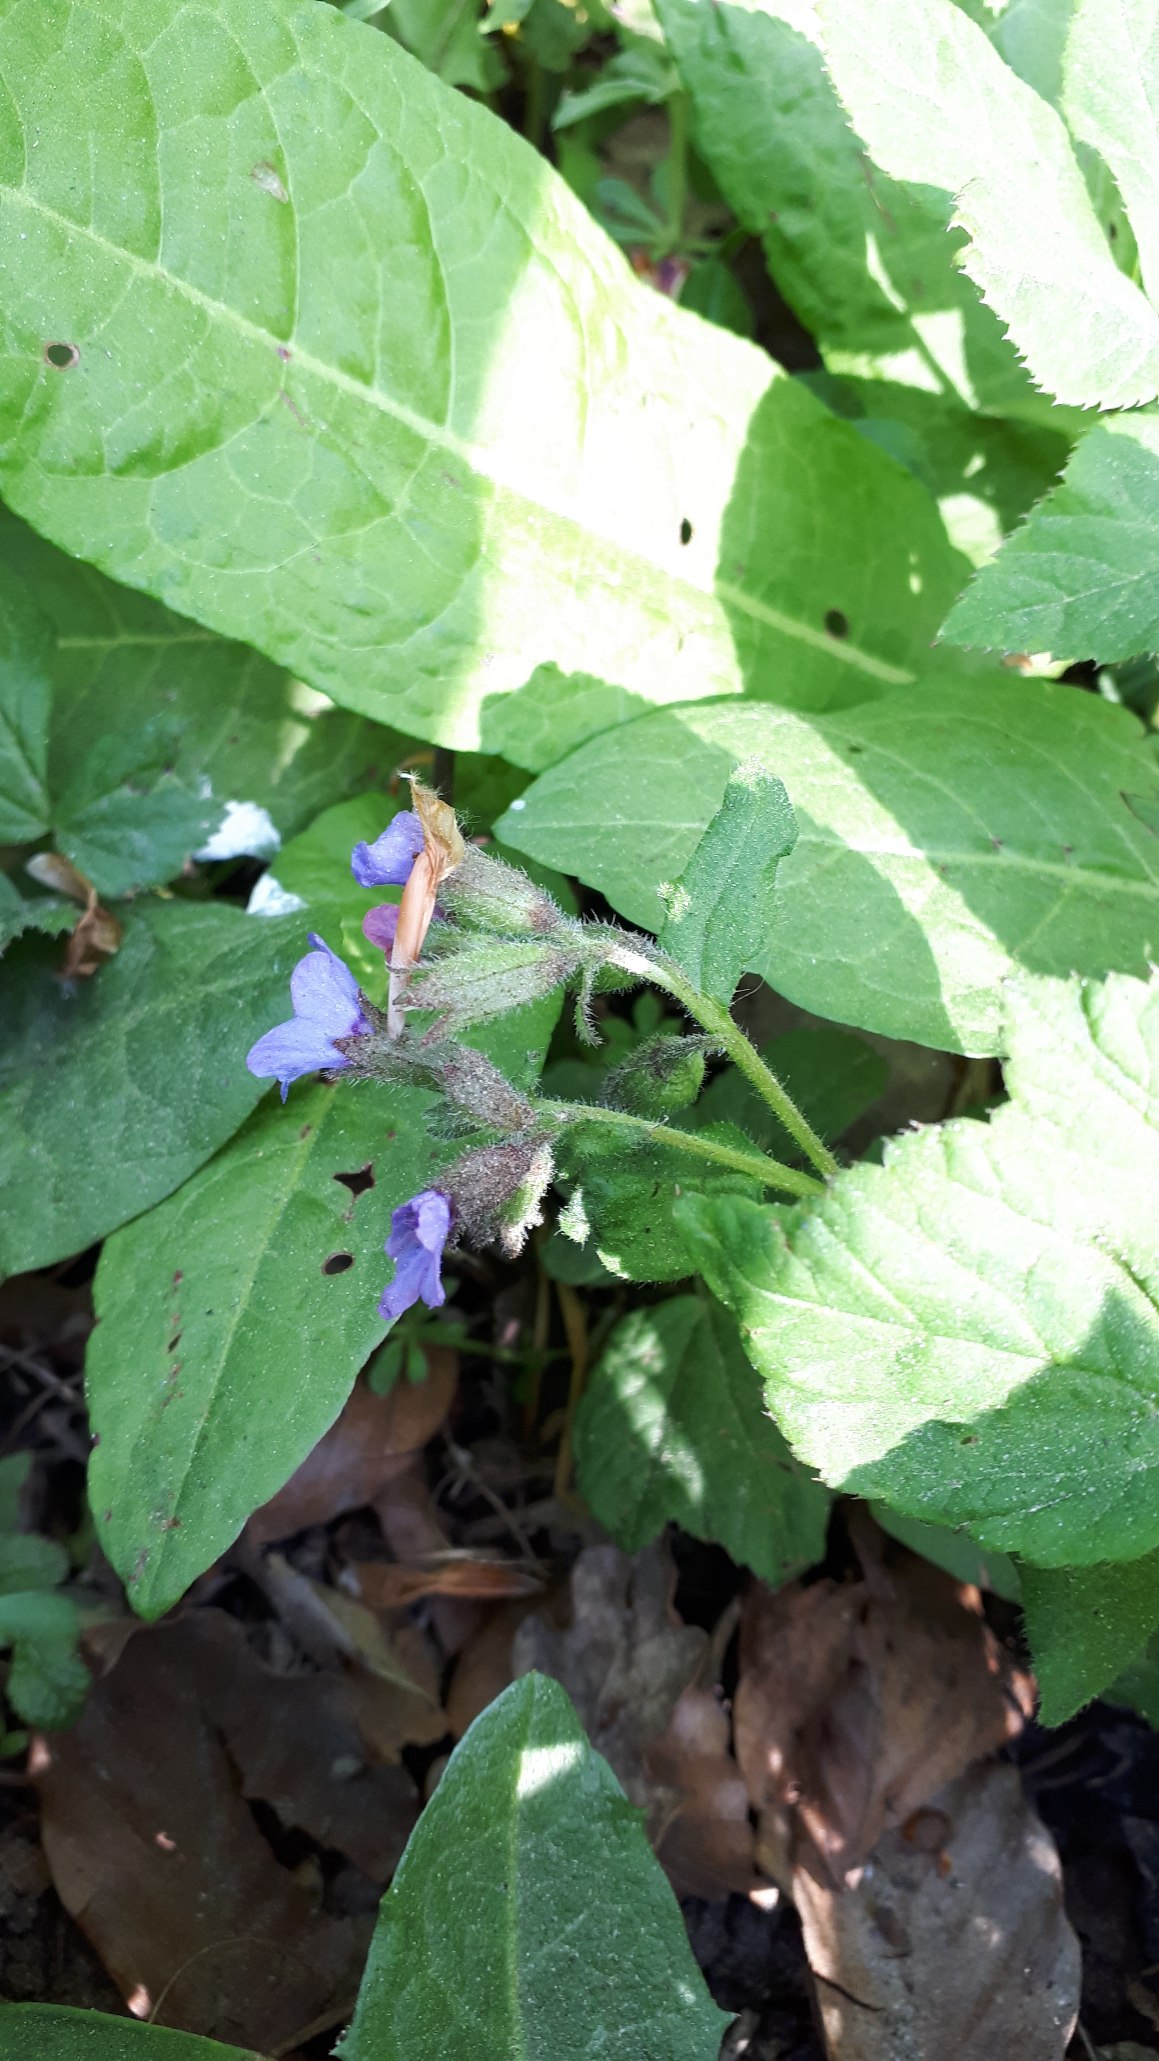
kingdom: Plantae
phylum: Tracheophyta
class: Magnoliopsida
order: Boraginales
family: Boraginaceae
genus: Pulmonaria
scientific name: Pulmonaria obscura
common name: Almindelig lungeurt
